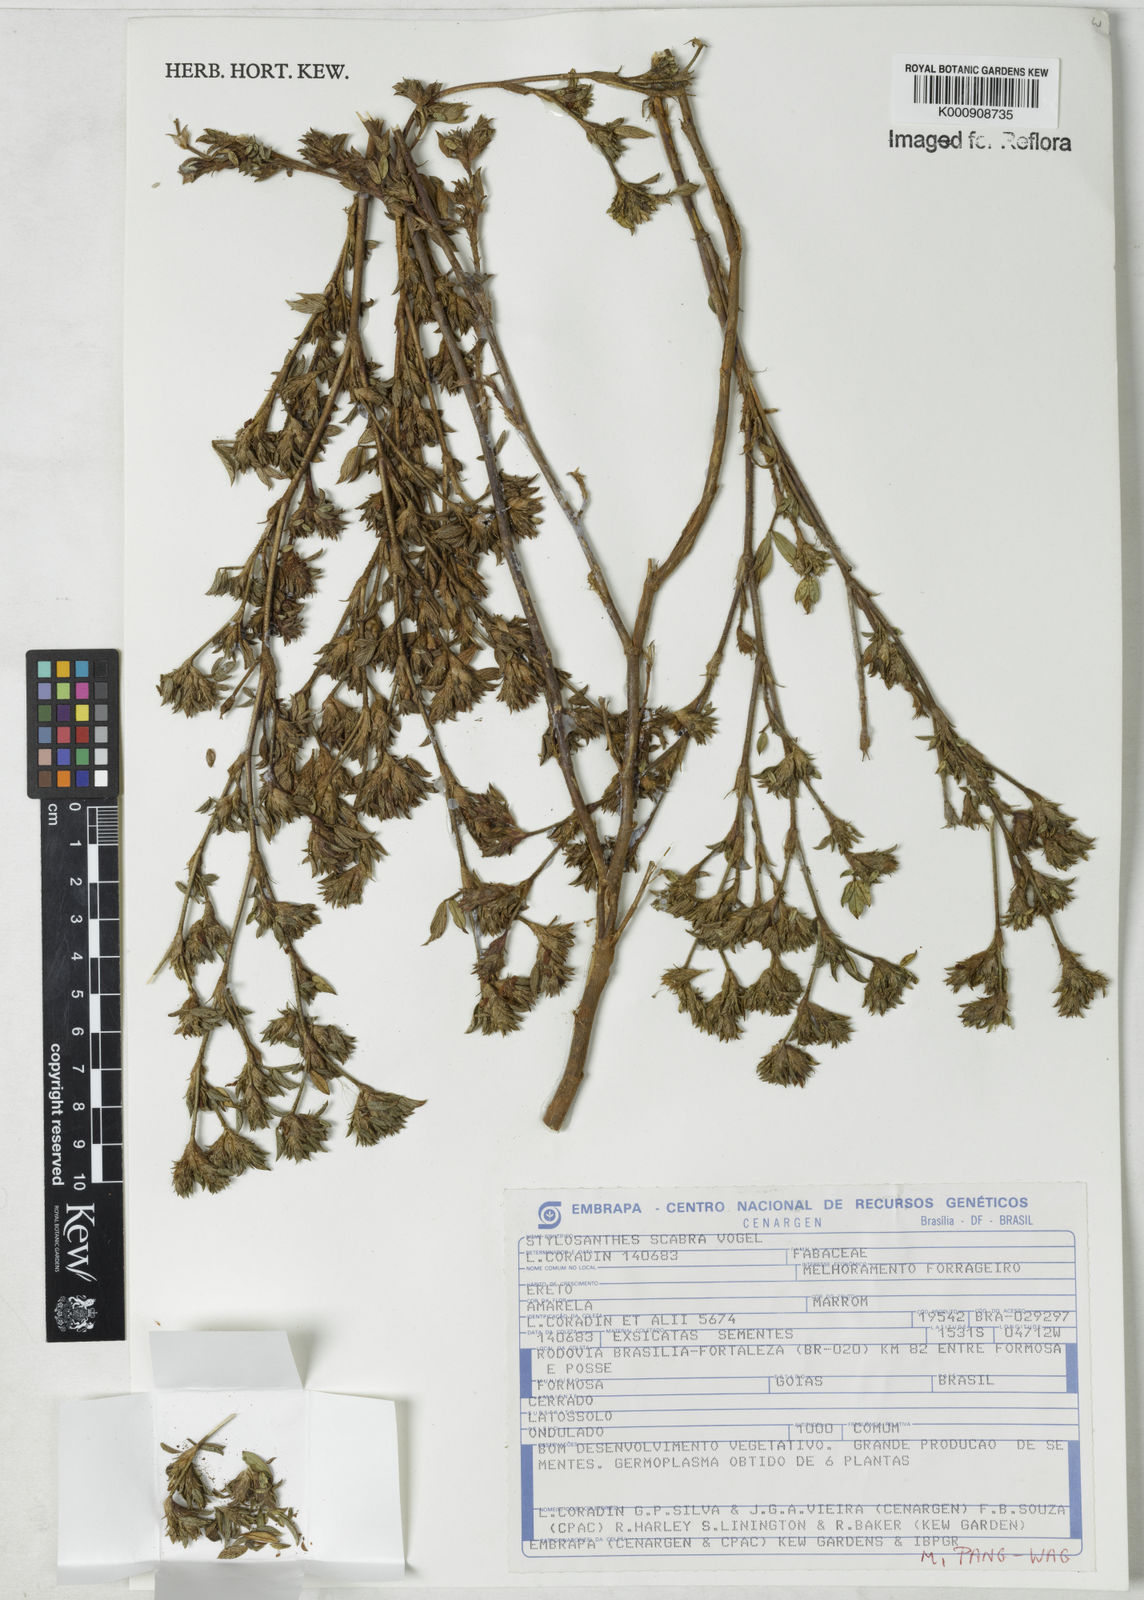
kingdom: Plantae
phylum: Tracheophyta
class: Magnoliopsida
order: Fabales
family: Fabaceae
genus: Stylosanthes
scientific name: Stylosanthes scabra
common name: Pencilflower
